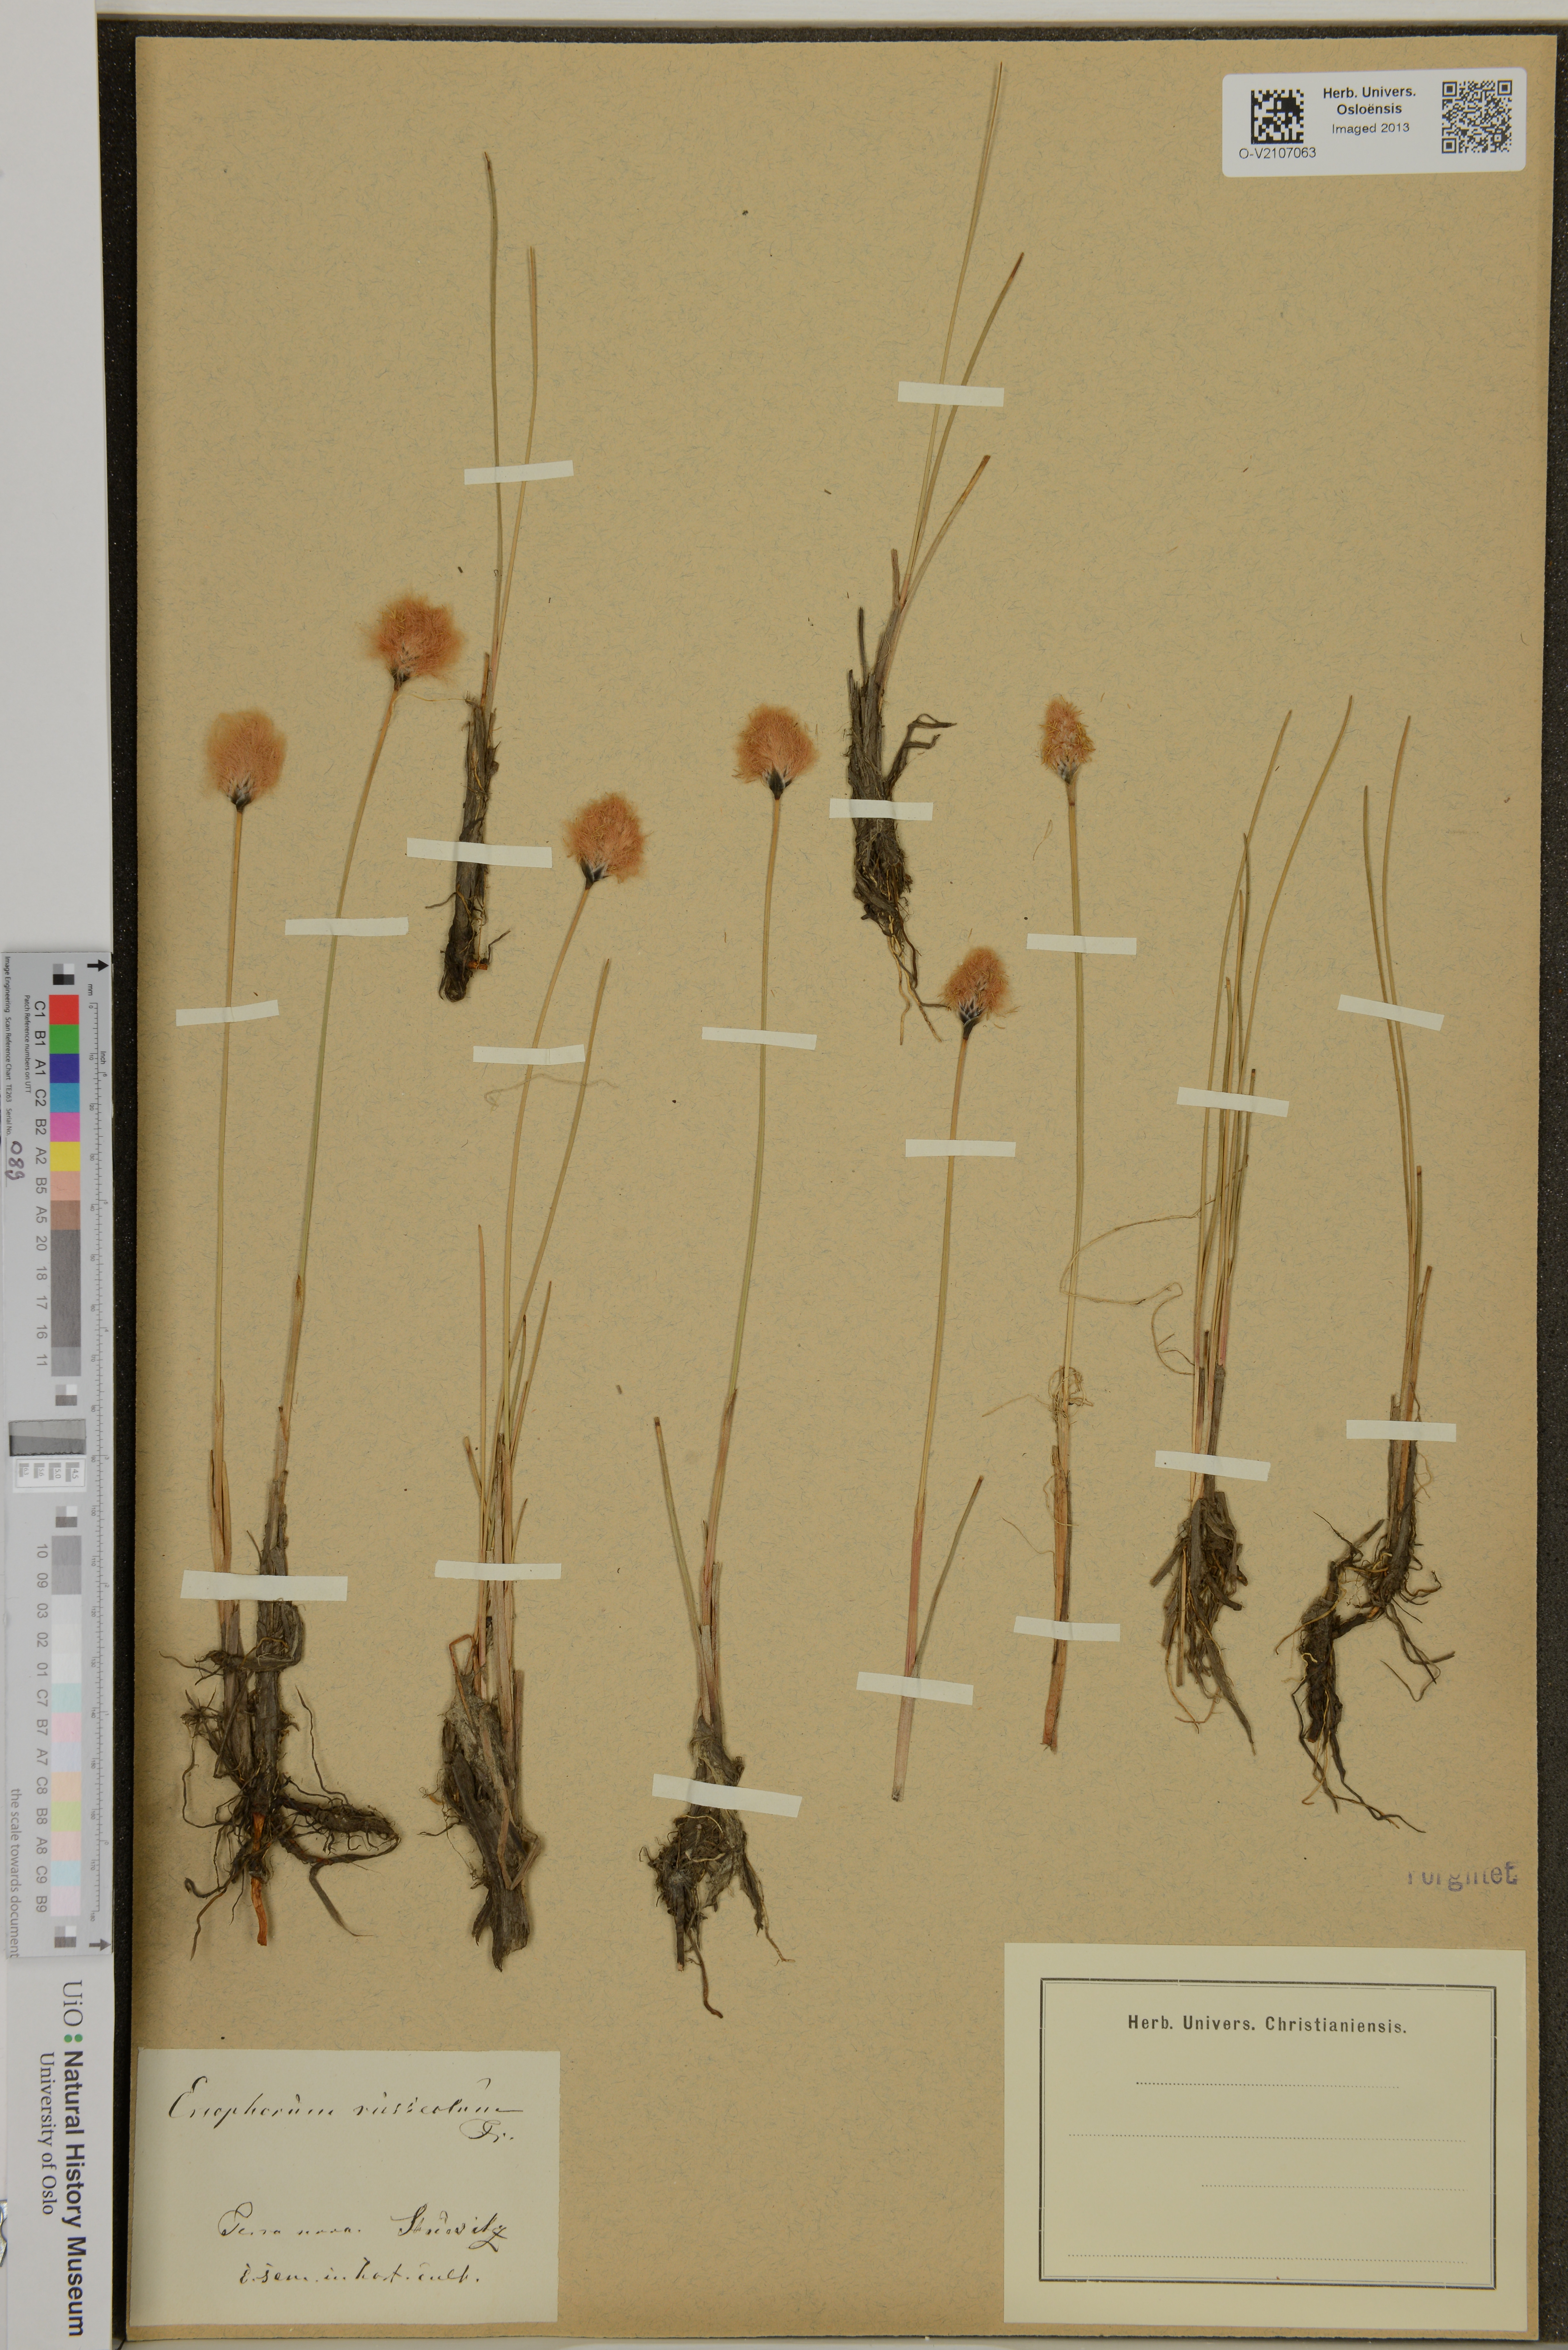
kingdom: Plantae
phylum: Tracheophyta
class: Liliopsida
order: Poales
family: Cyperaceae
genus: Eriophorum
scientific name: Eriophorum russeolum
